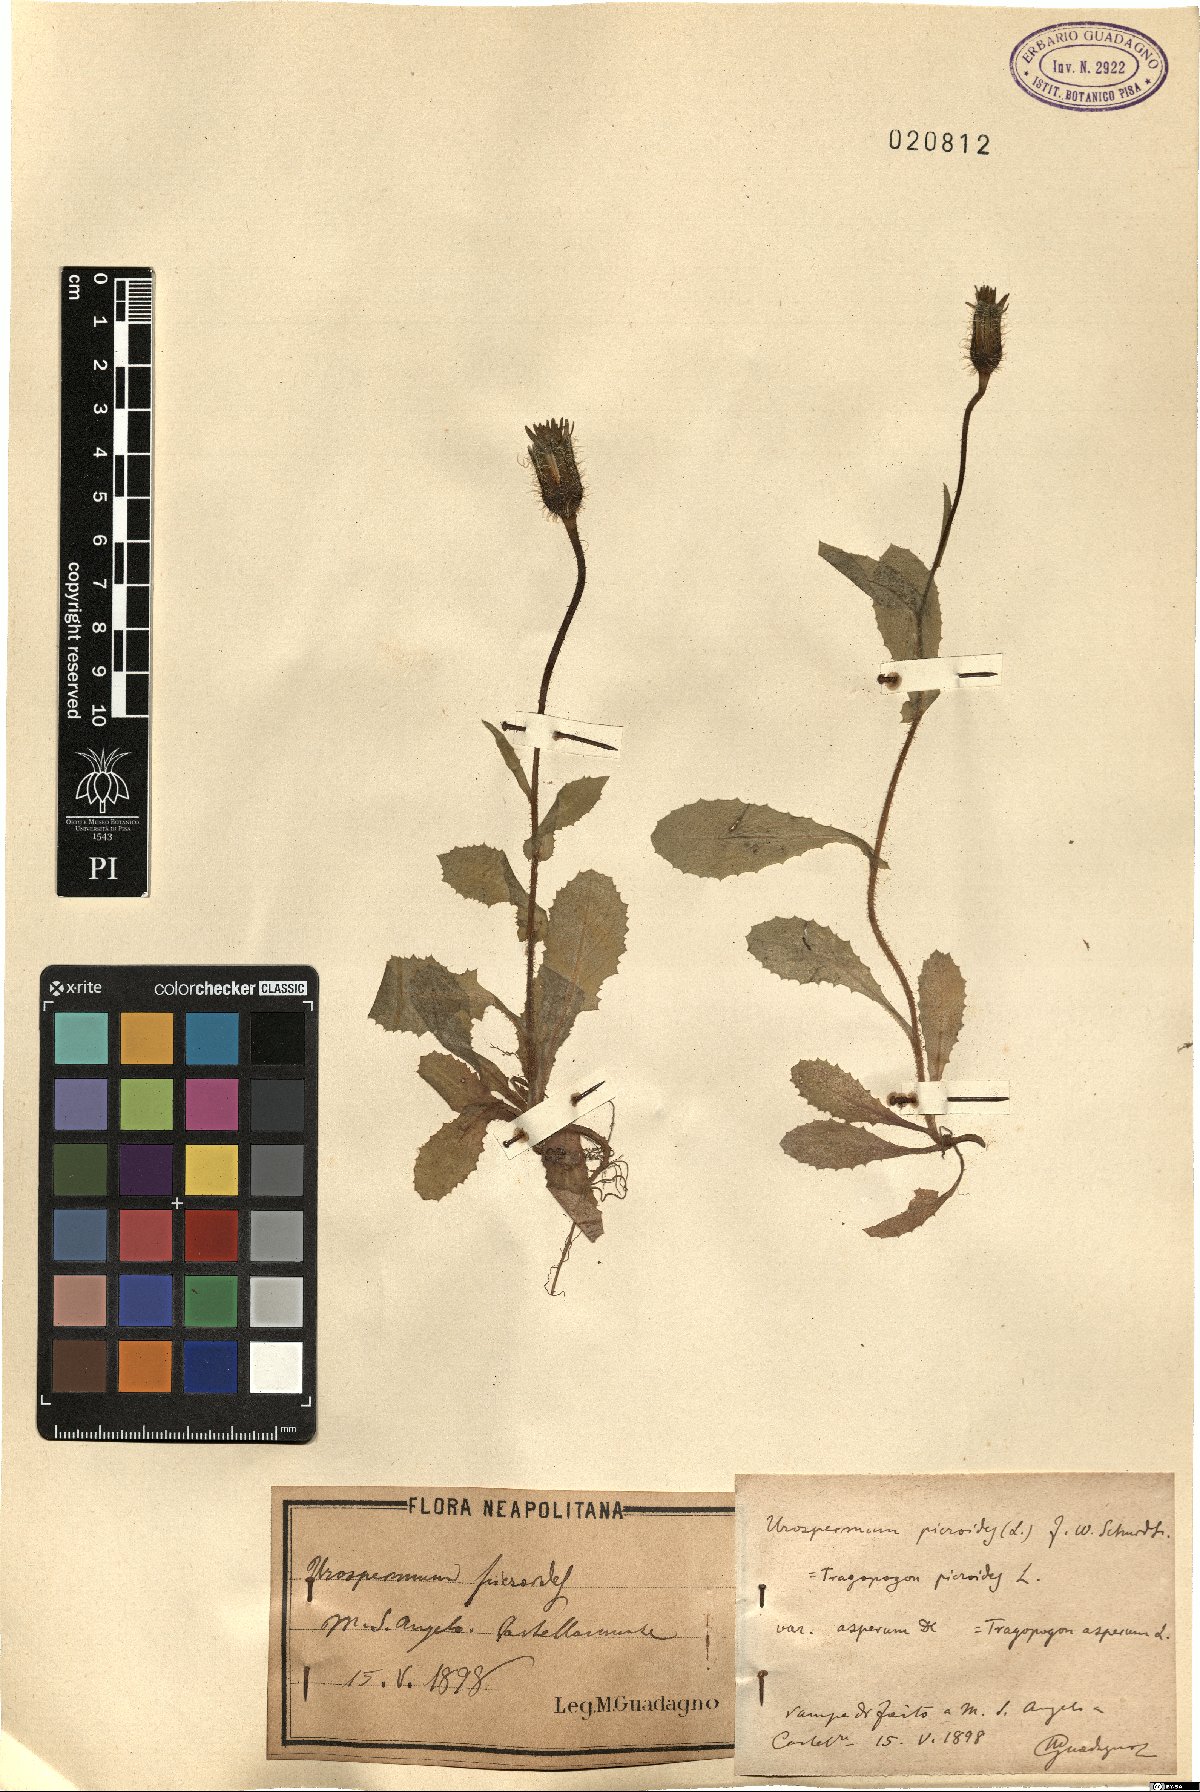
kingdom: Plantae
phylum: Tracheophyta
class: Magnoliopsida
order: Asterales
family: Asteraceae
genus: Urospermum
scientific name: Urospermum picroides
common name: False hawkbit
